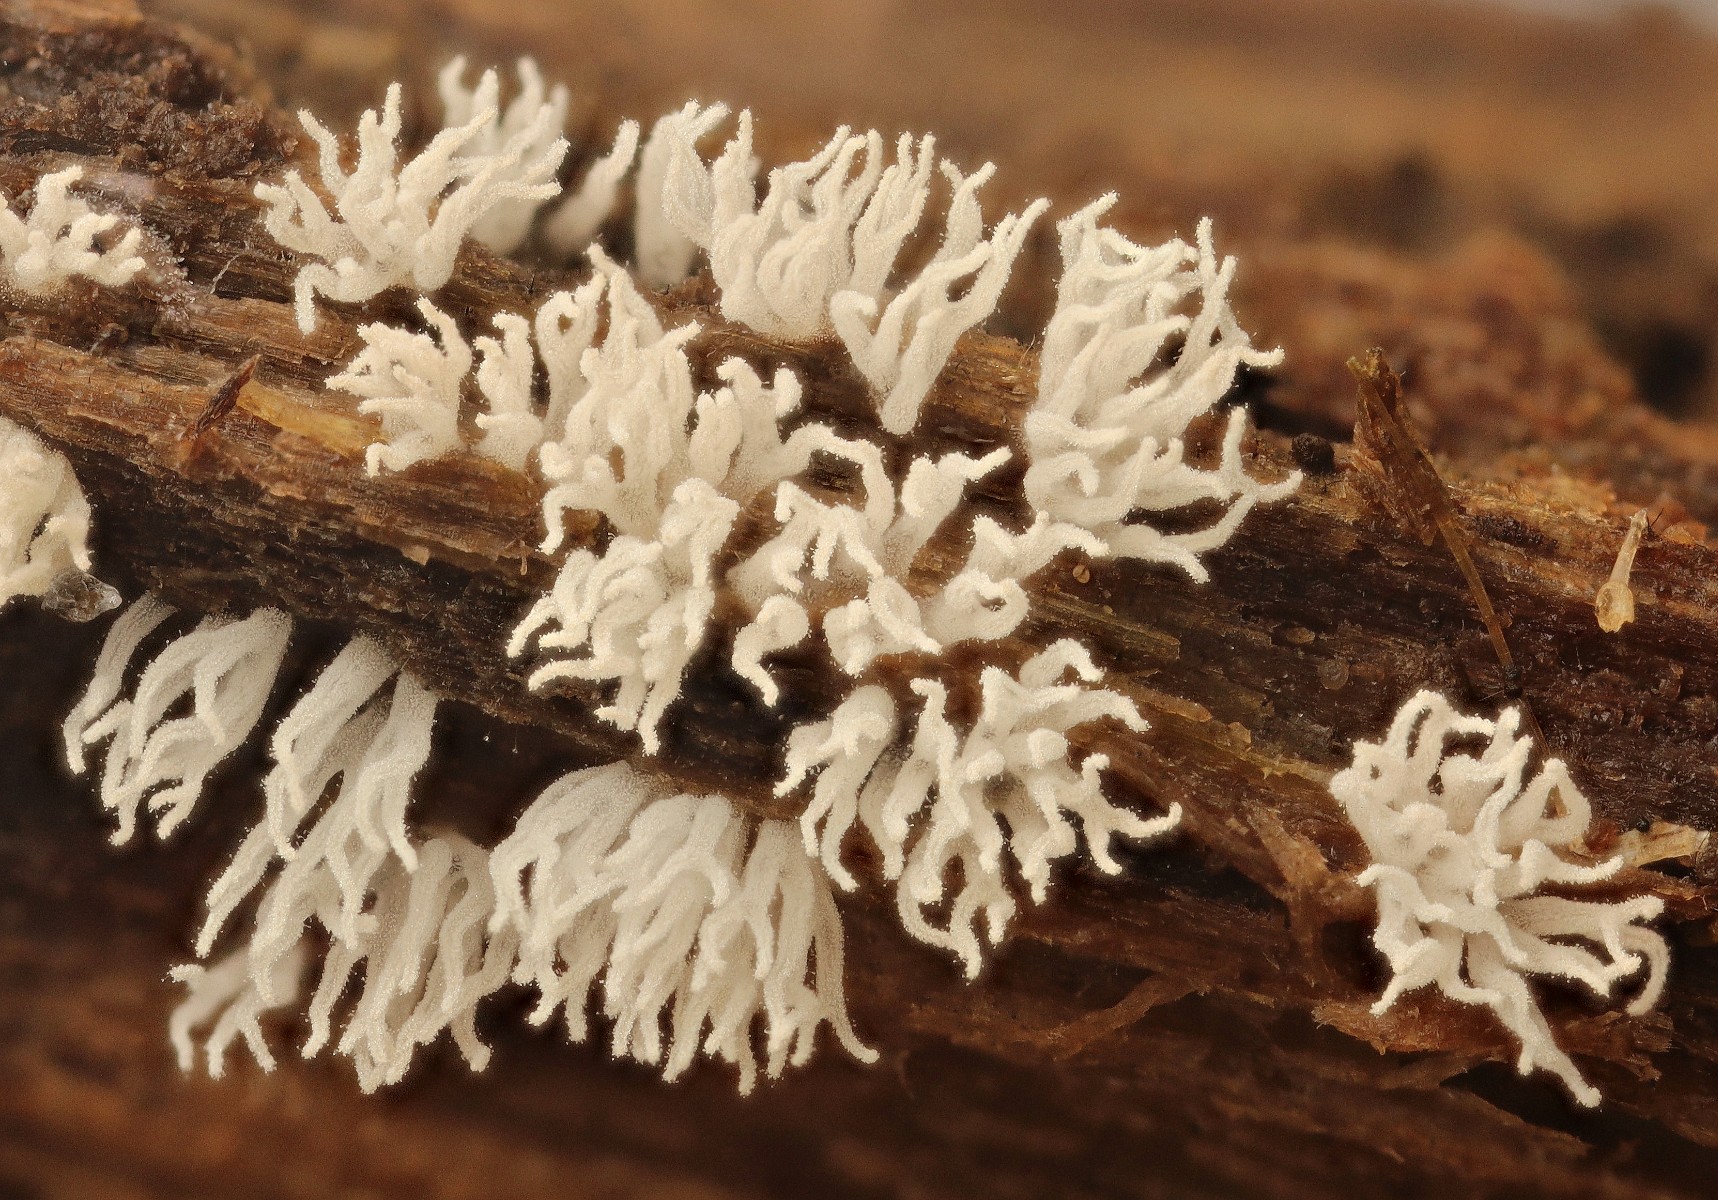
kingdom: Protozoa
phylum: Mycetozoa
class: Protosteliomycetes
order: Ceratiomyxales
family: Ceratiomyxaceae
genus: Ceratiomyxa
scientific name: Ceratiomyxa fruticulosa
